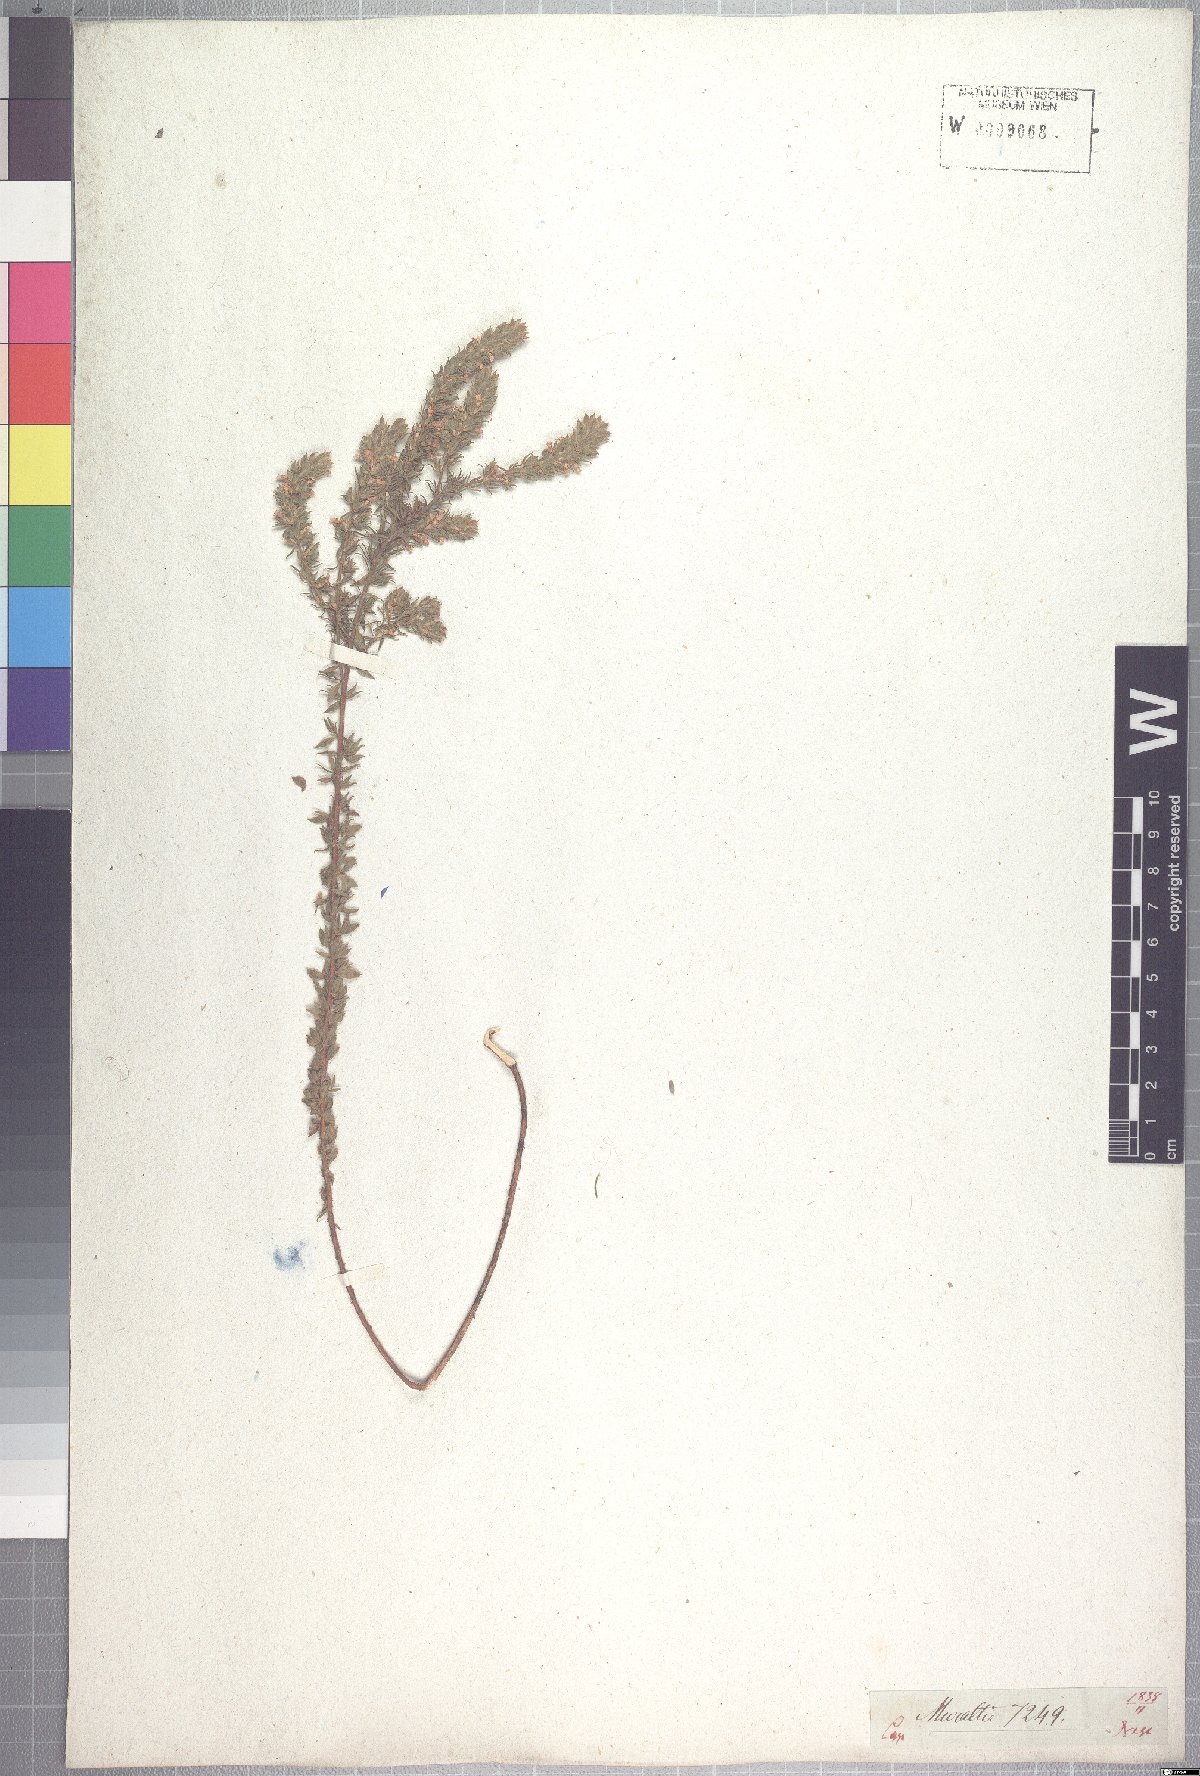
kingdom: Plantae
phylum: Tracheophyta
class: Magnoliopsida
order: Fabales
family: Polygalaceae
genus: Muraltia
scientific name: Muraltia alba
